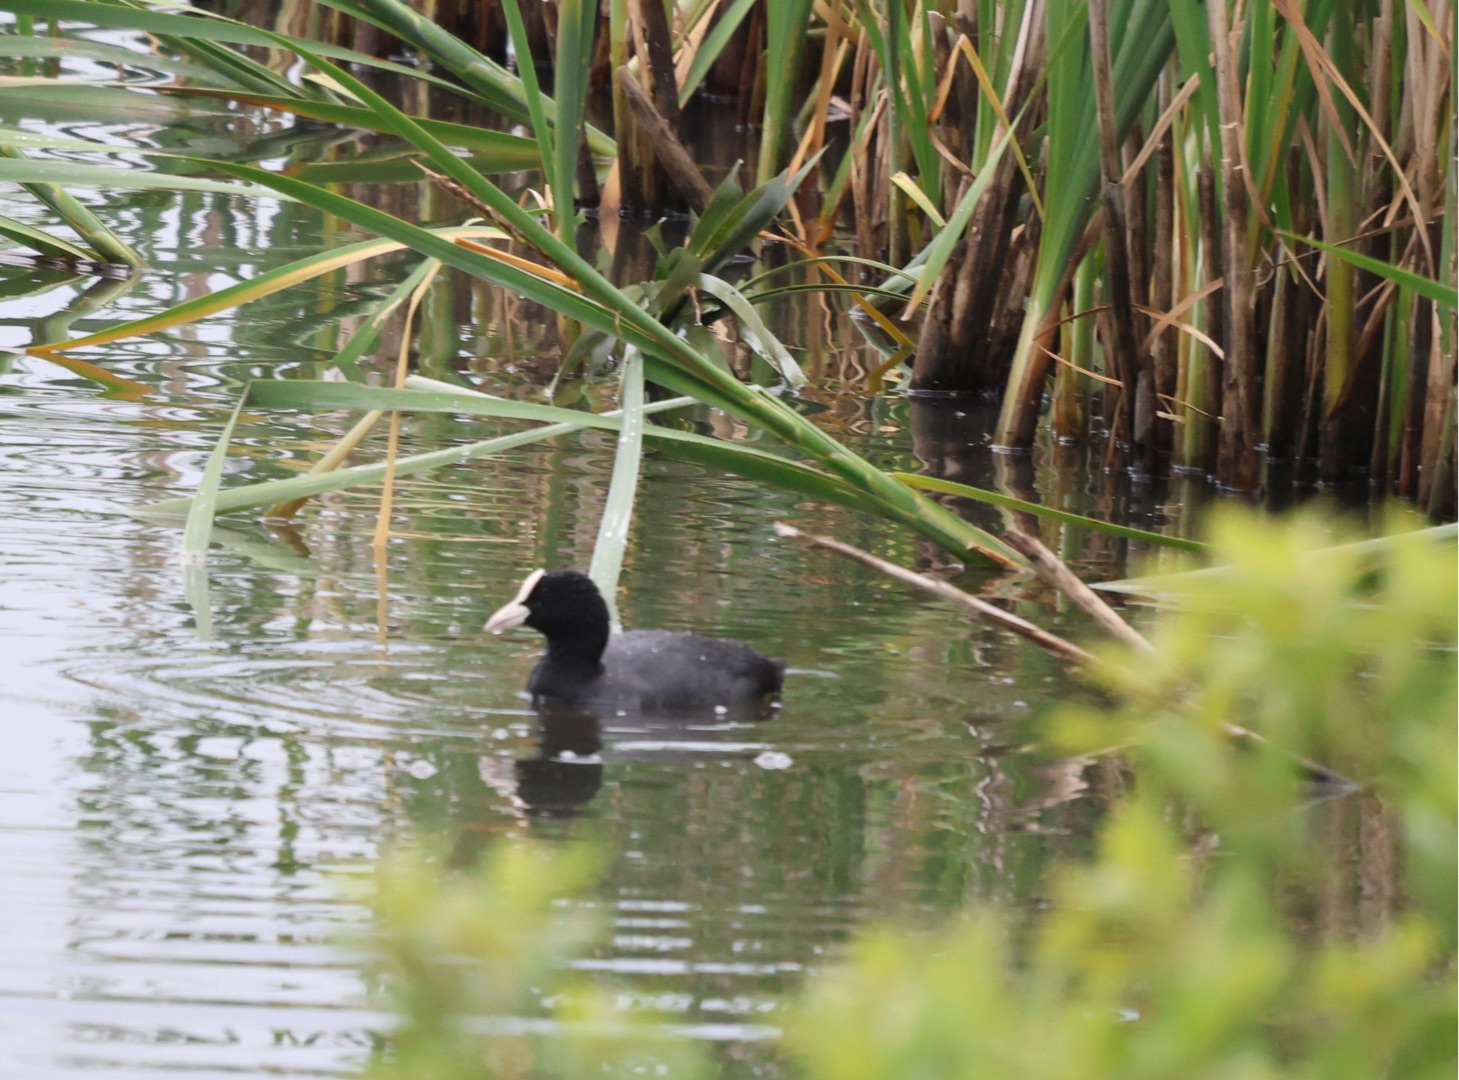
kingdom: Animalia
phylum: Chordata
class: Aves
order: Gruiformes
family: Rallidae
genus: Fulica
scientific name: Fulica atra
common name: Blishøne
